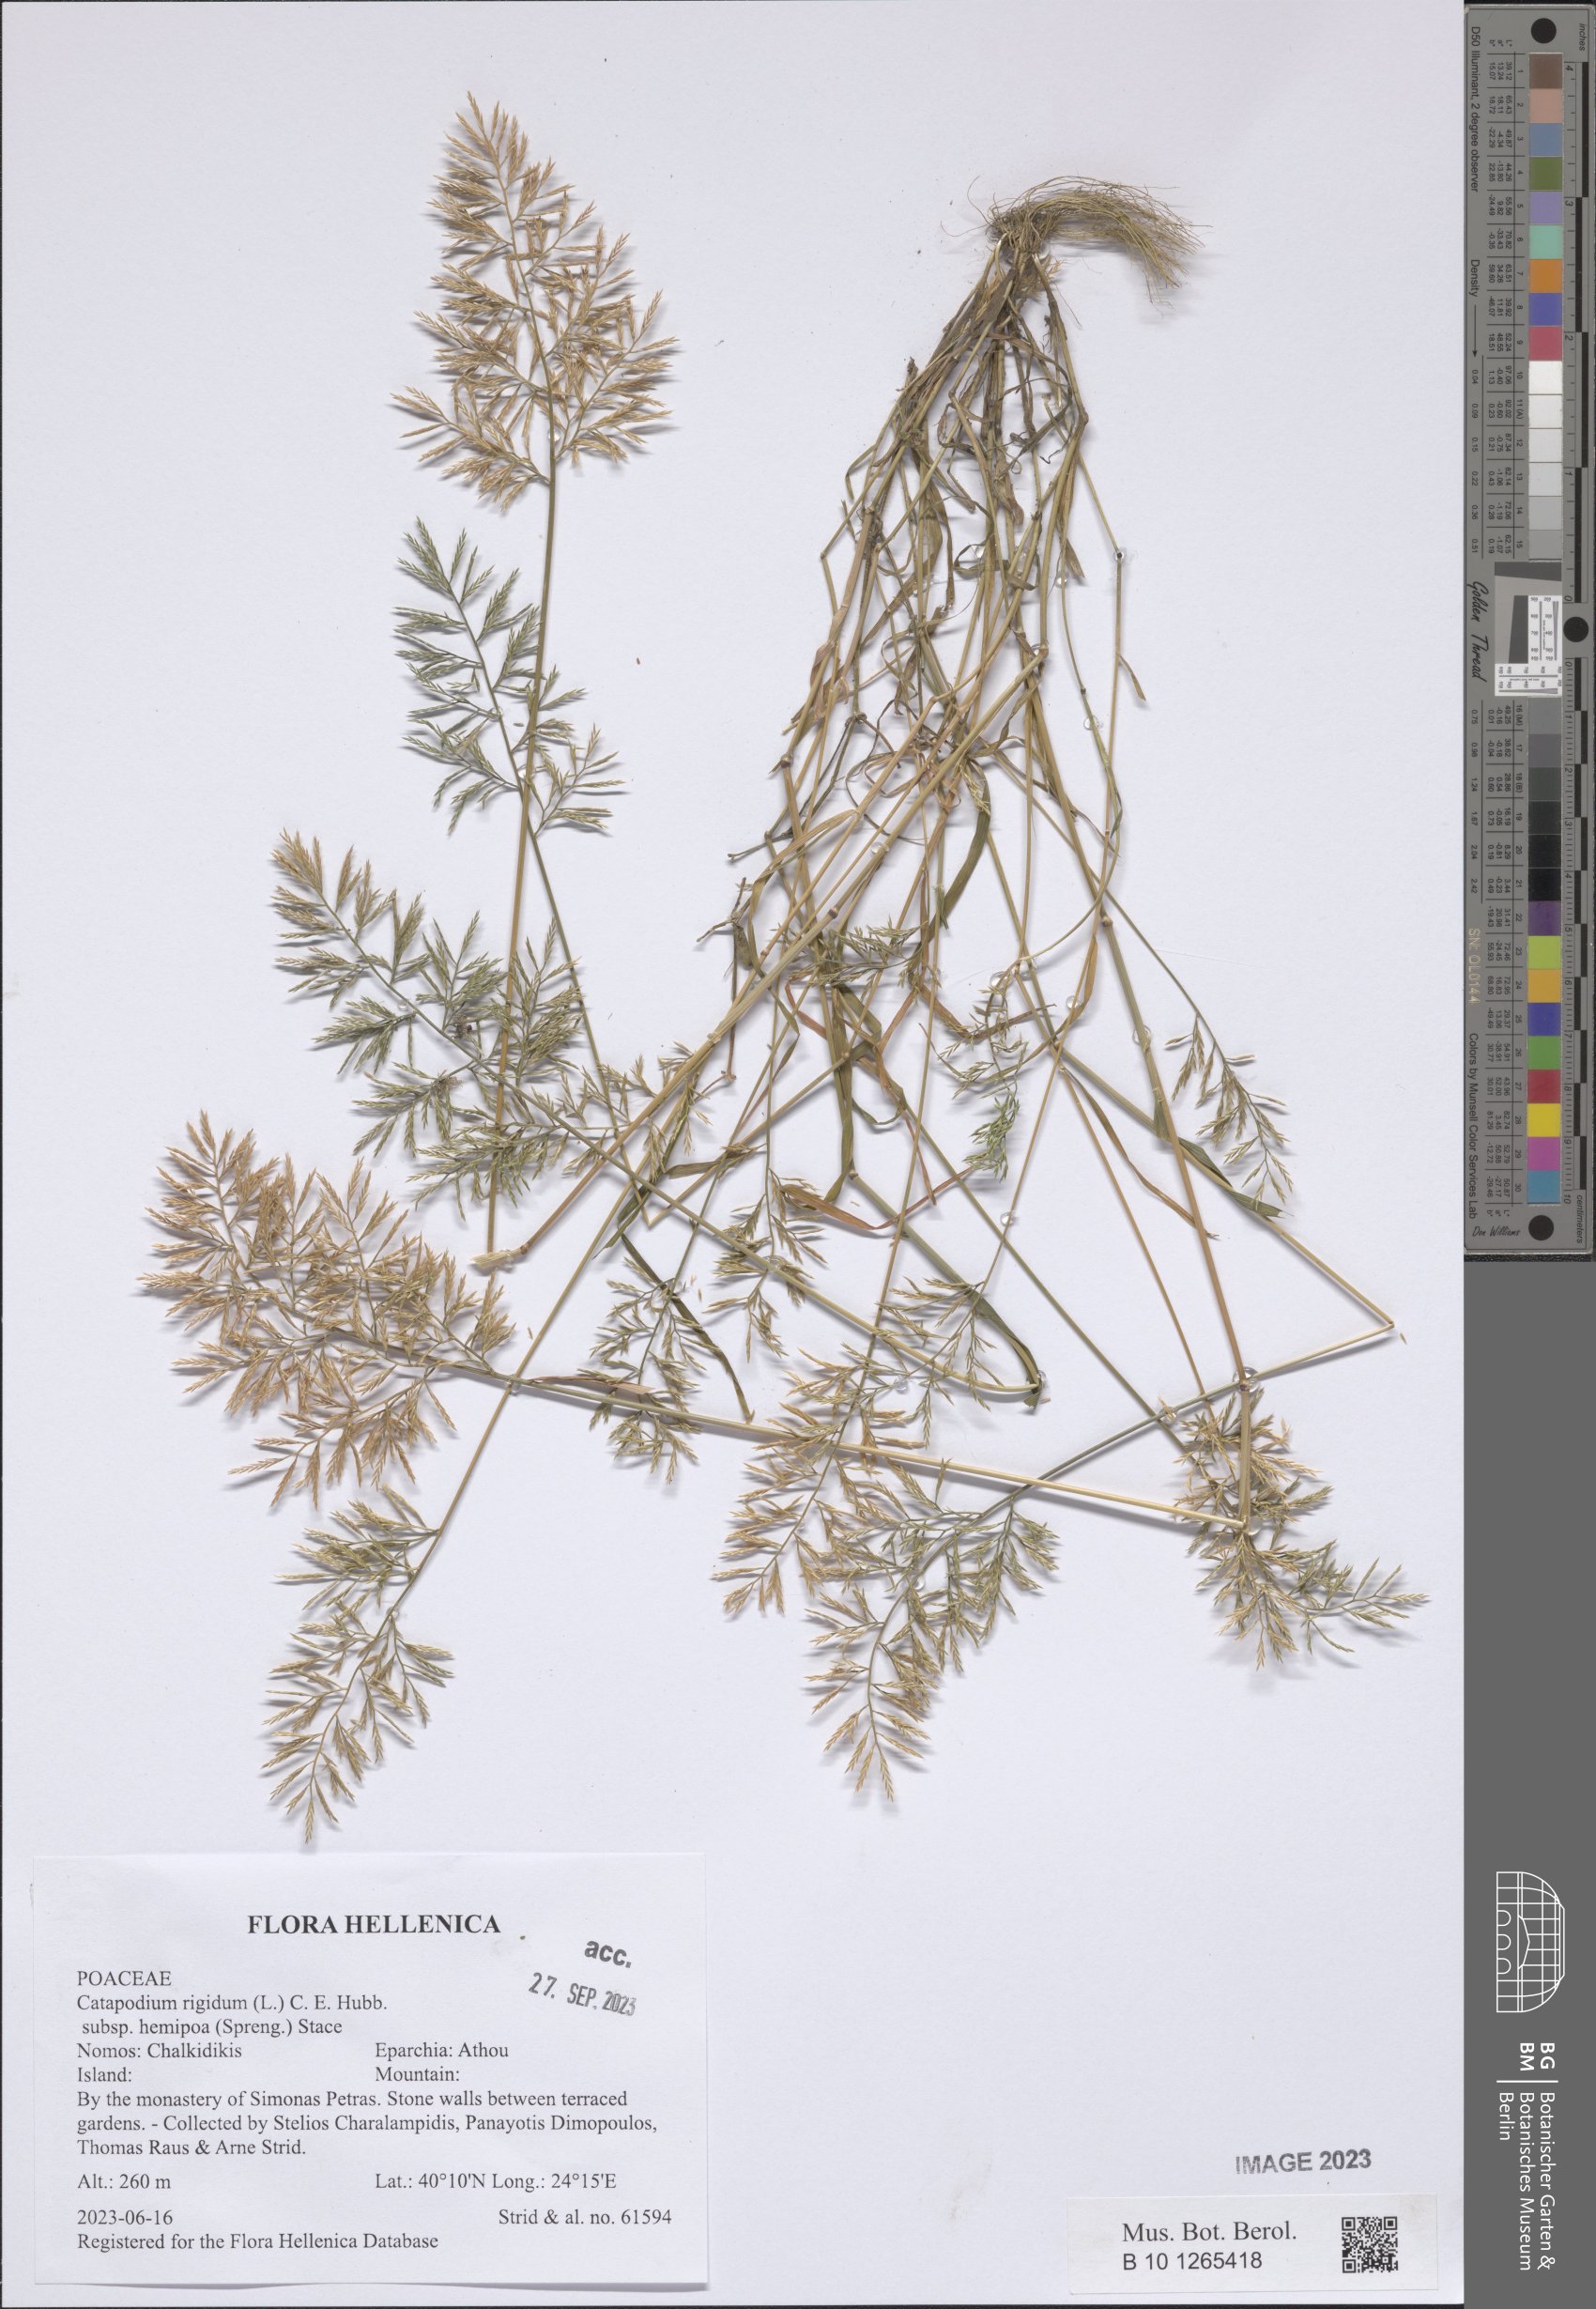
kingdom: Plantae
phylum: Tracheophyta
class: Liliopsida
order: Poales
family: Poaceae
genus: Catapodium
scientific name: Catapodium hemipoa
